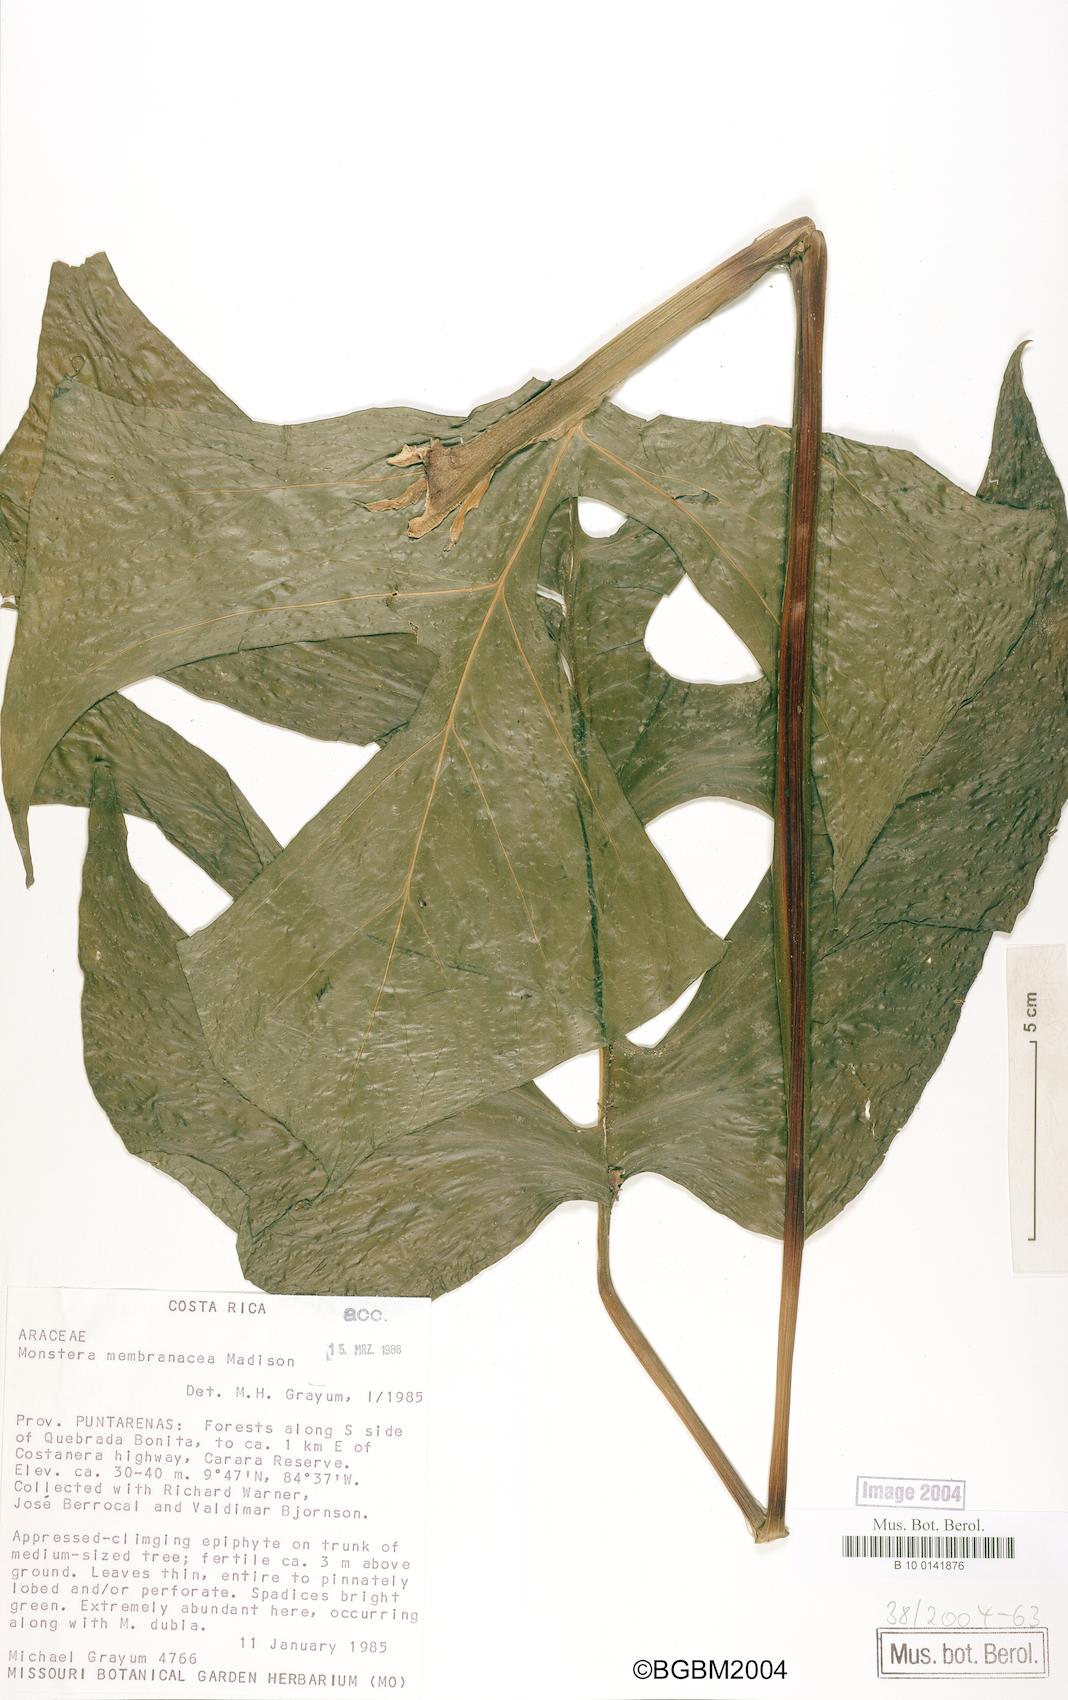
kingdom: Plantae
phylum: Tracheophyta
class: Liliopsida
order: Alismatales
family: Araceae
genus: Monstera
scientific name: Monstera membranacea
